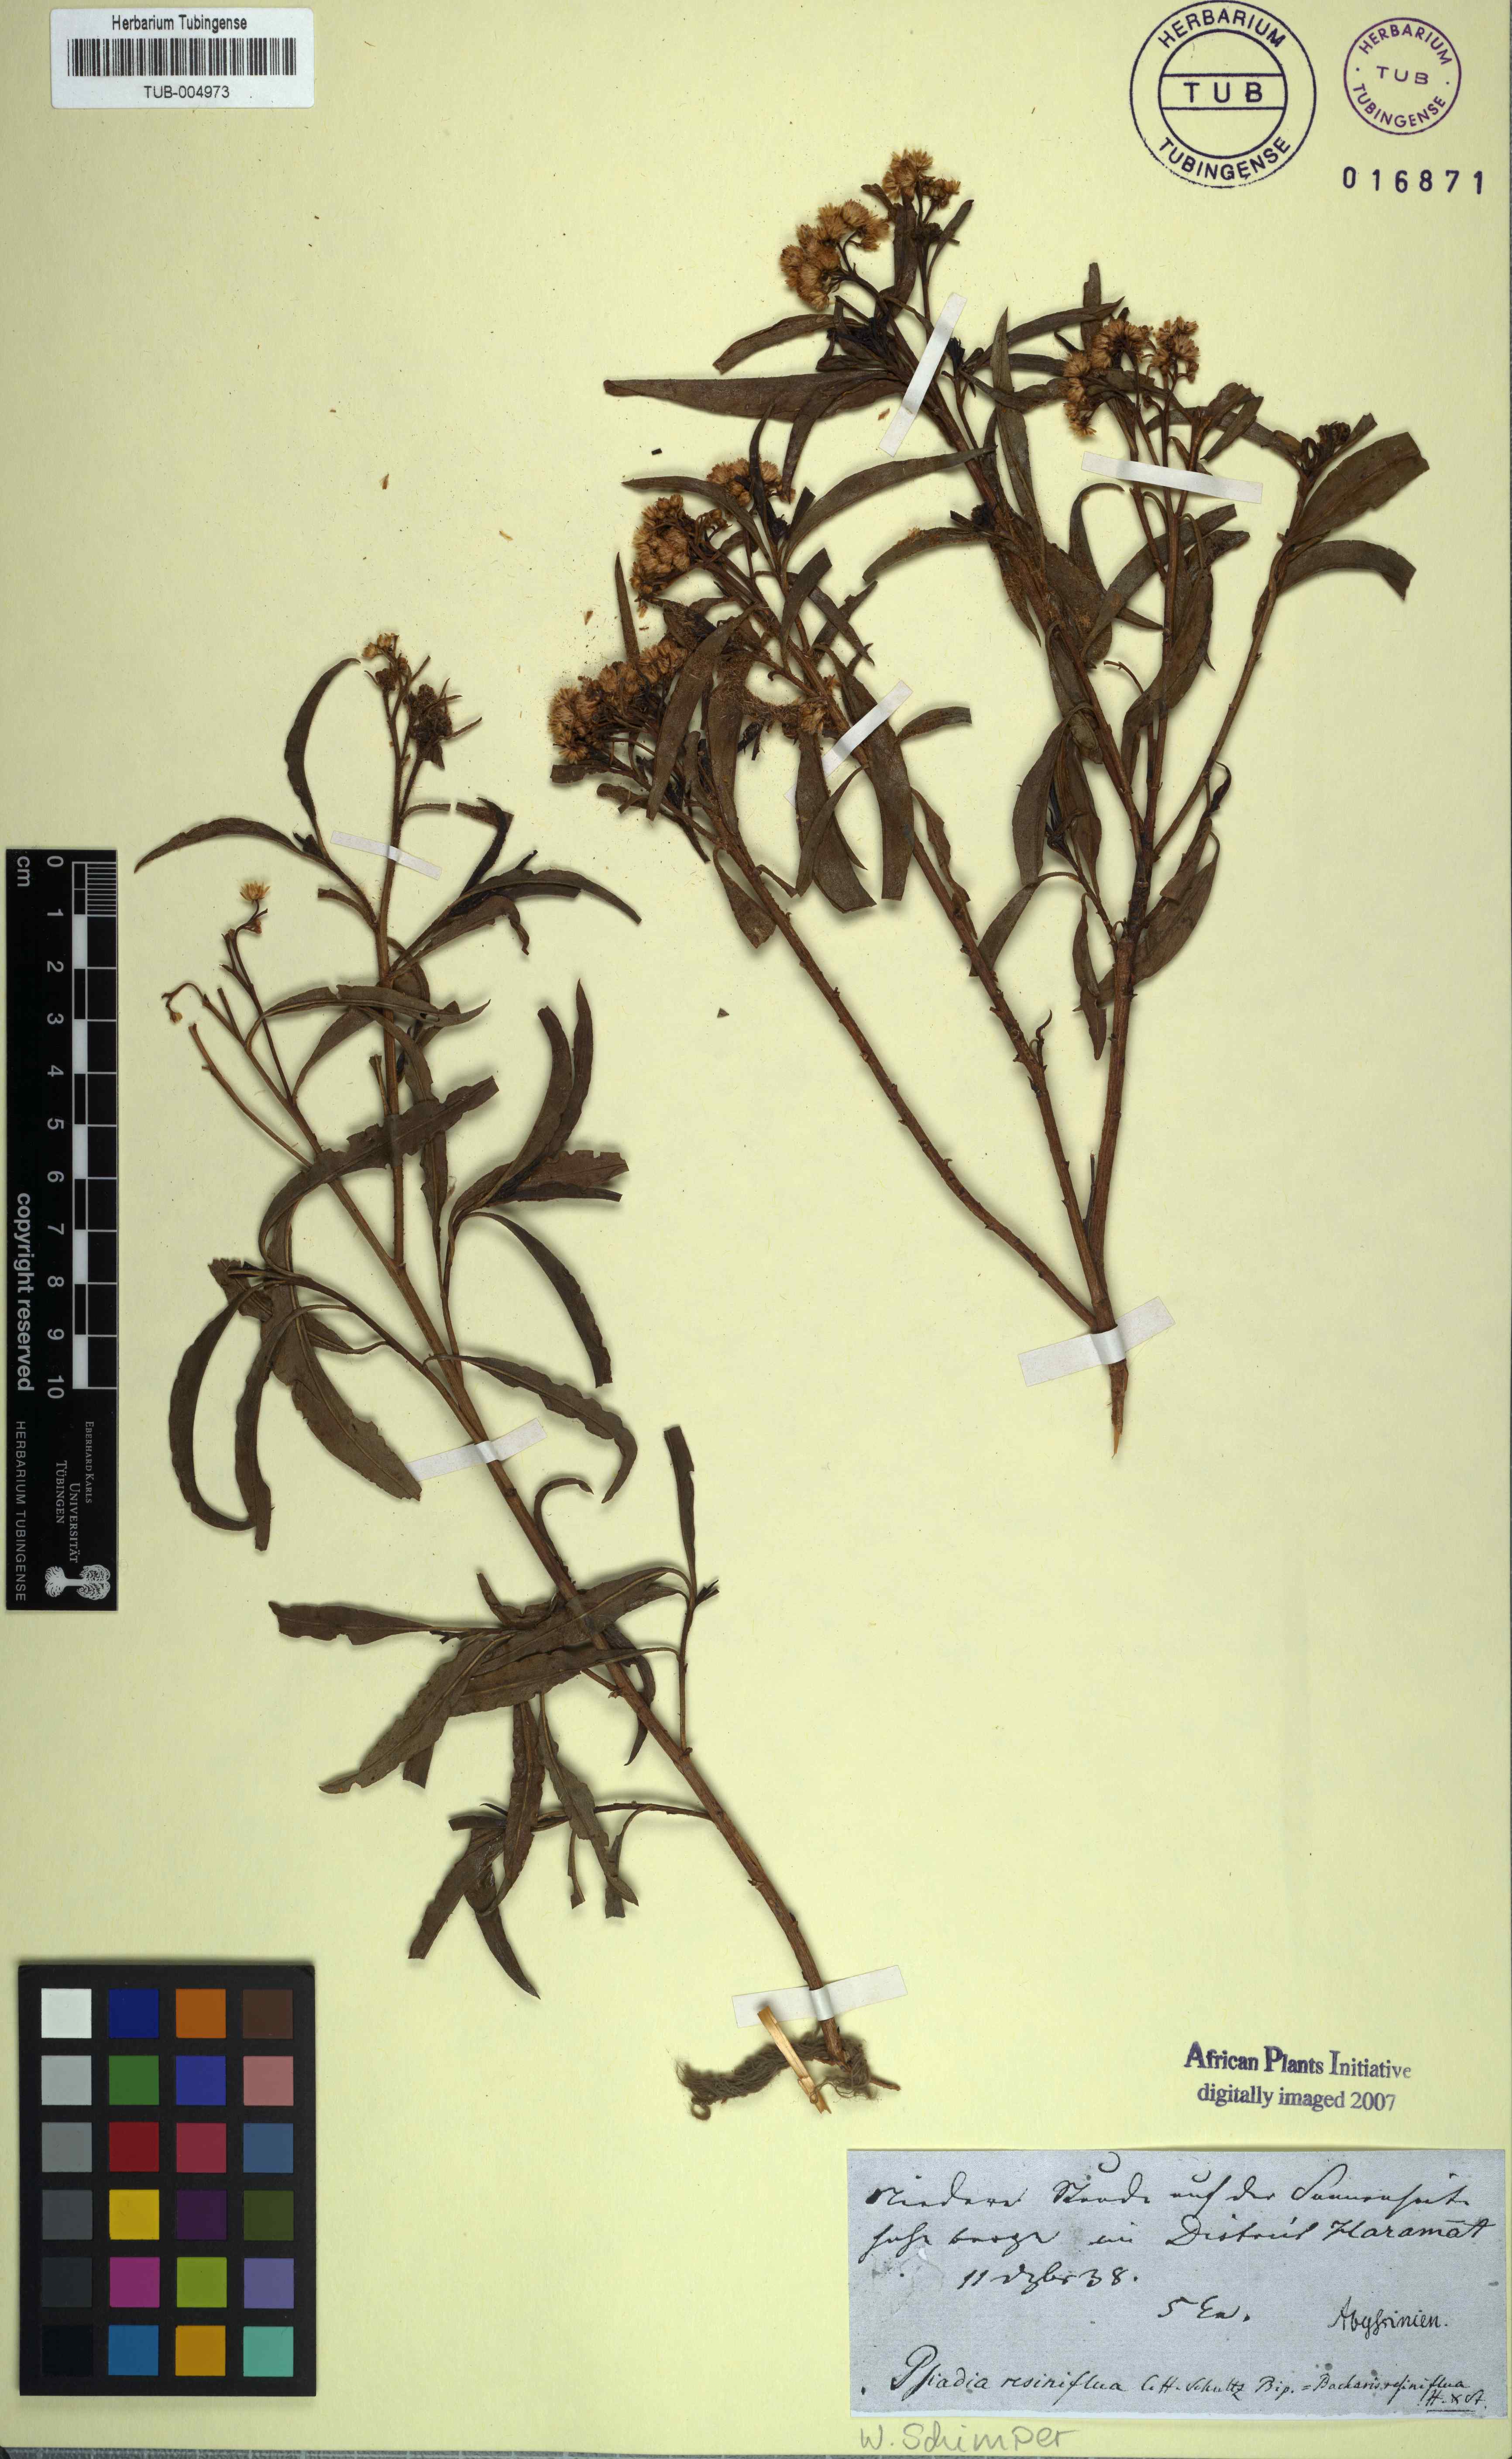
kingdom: Plantae
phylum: Tracheophyta
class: Magnoliopsida
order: Asterales
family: Asteraceae
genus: Psiadia
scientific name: Psiadia punctulata
